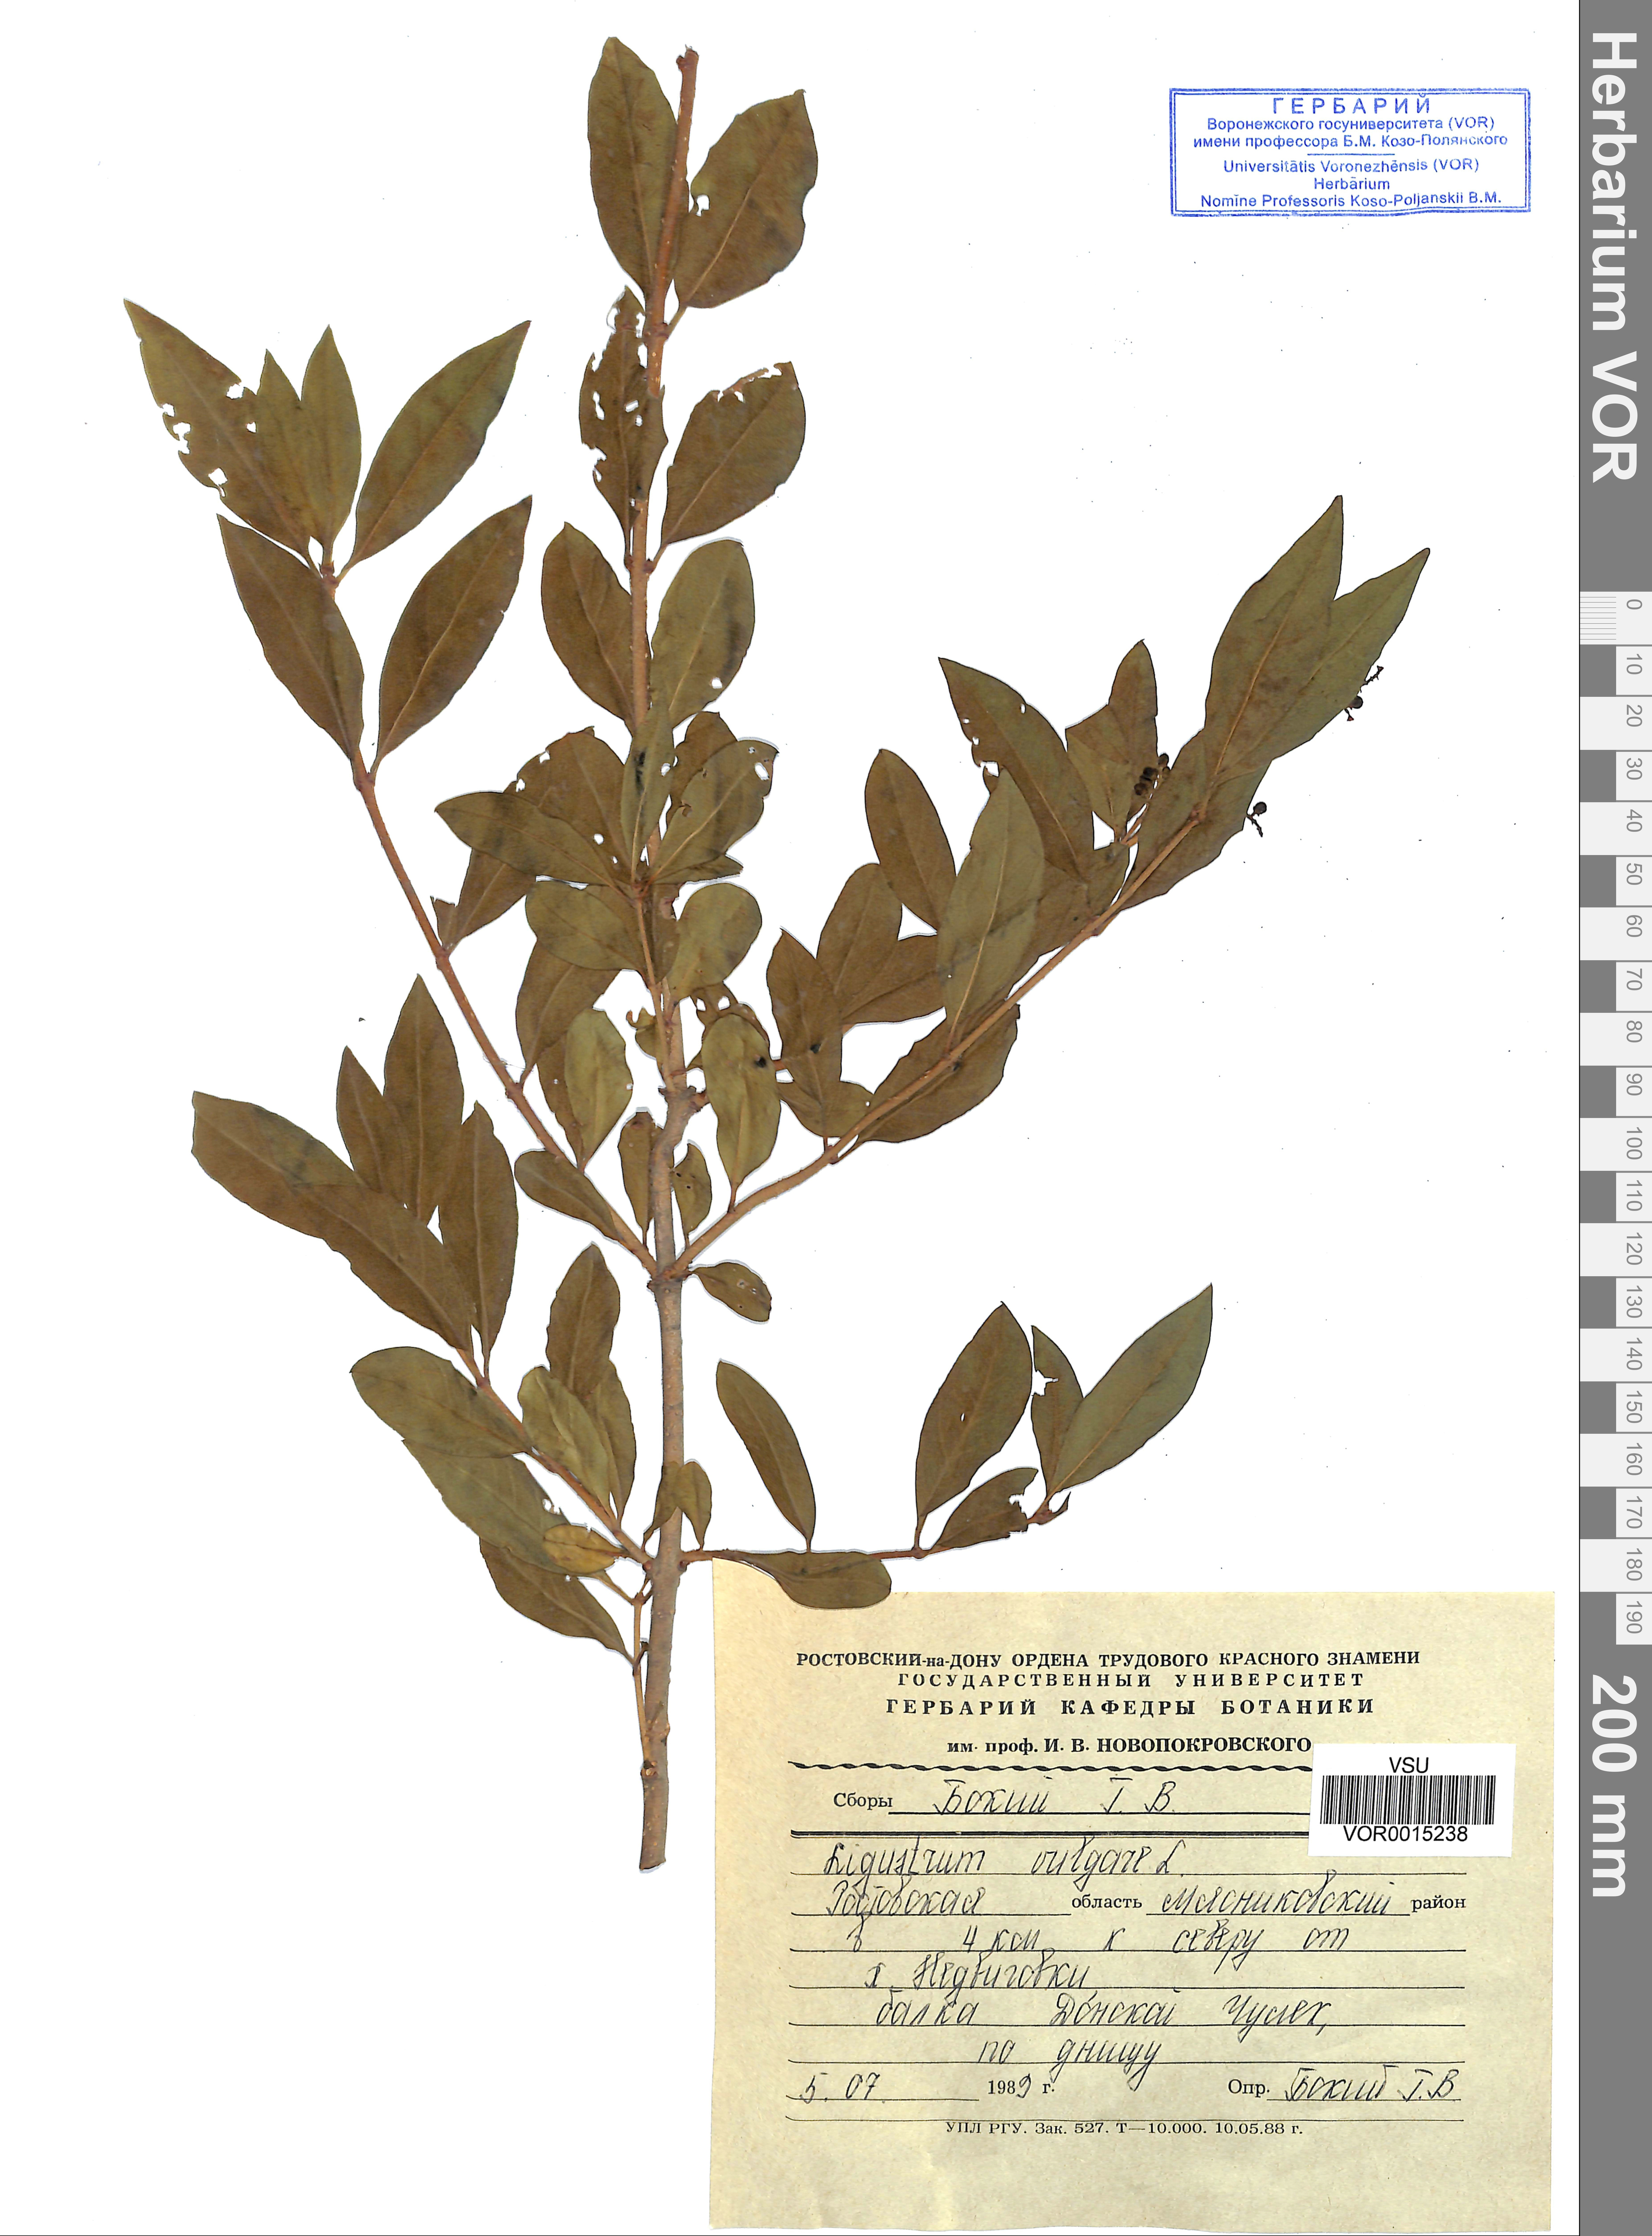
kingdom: Plantae
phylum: Tracheophyta
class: Magnoliopsida
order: Lamiales
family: Oleaceae
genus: Ligustrum
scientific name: Ligustrum vulgare
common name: Wild privet
